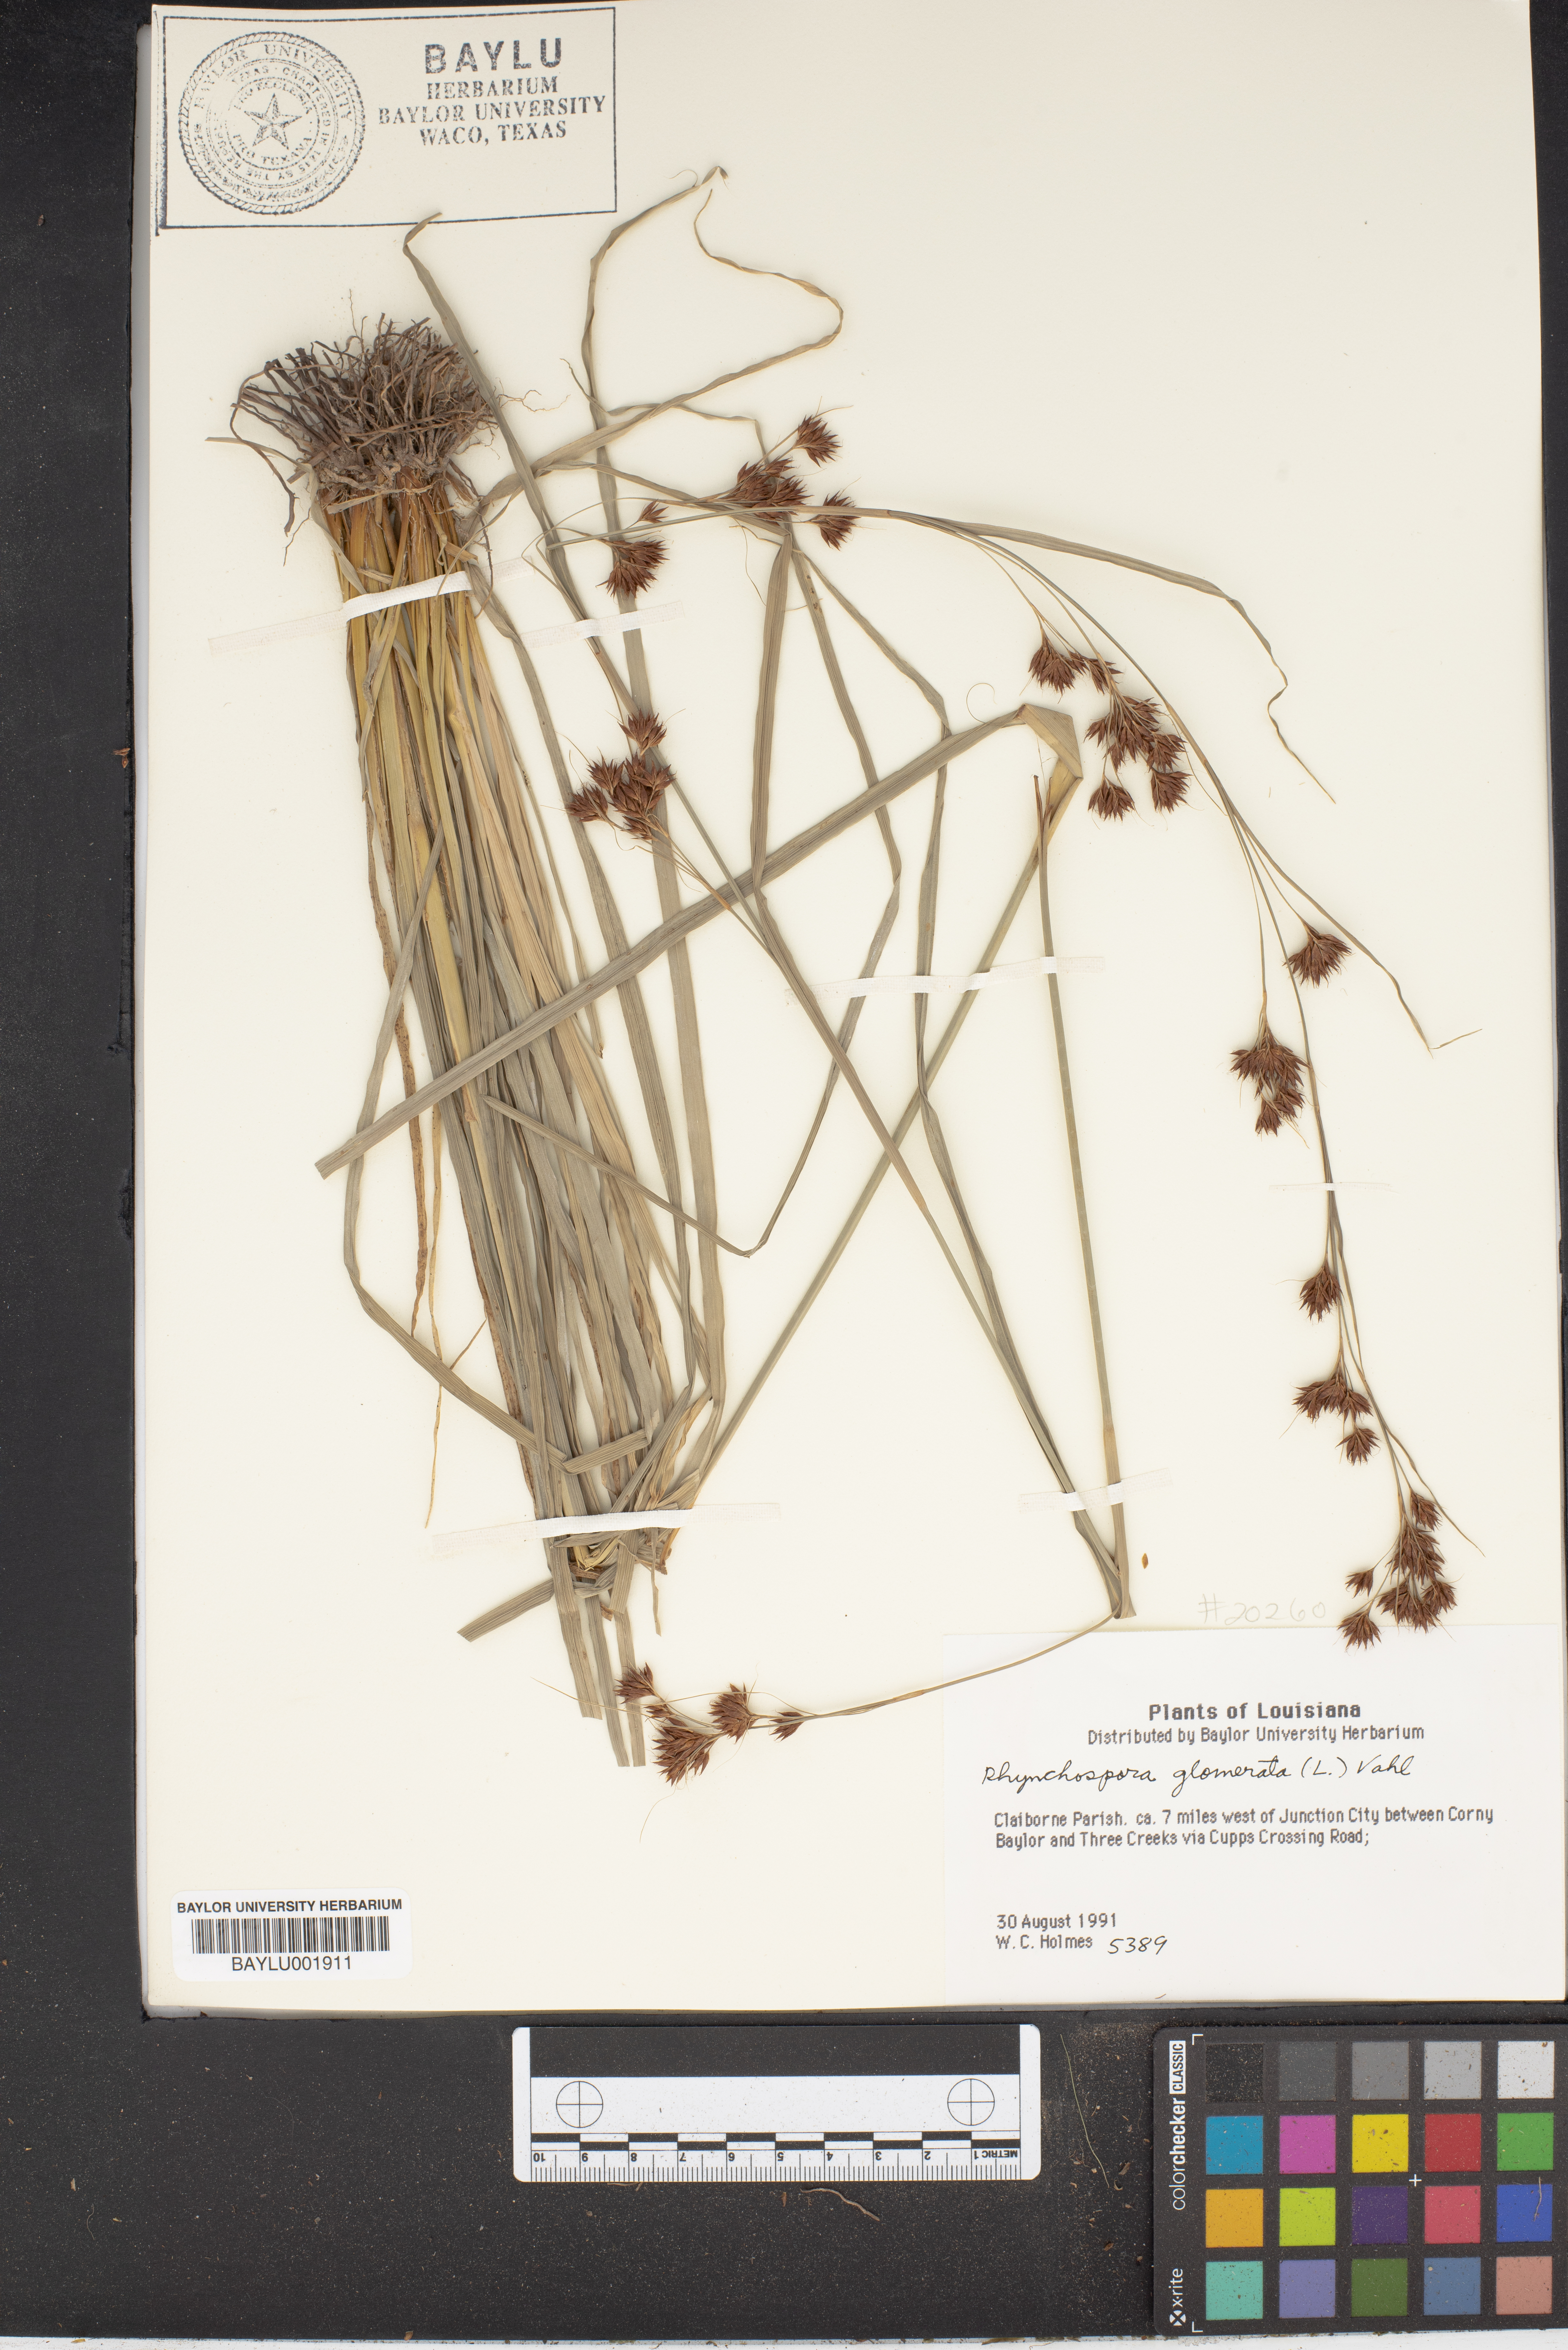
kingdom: Plantae
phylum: Tracheophyta
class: Liliopsida
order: Poales
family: Cyperaceae
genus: Rhynchospora
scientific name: Rhynchospora glomerata
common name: Cluster beak sedge
